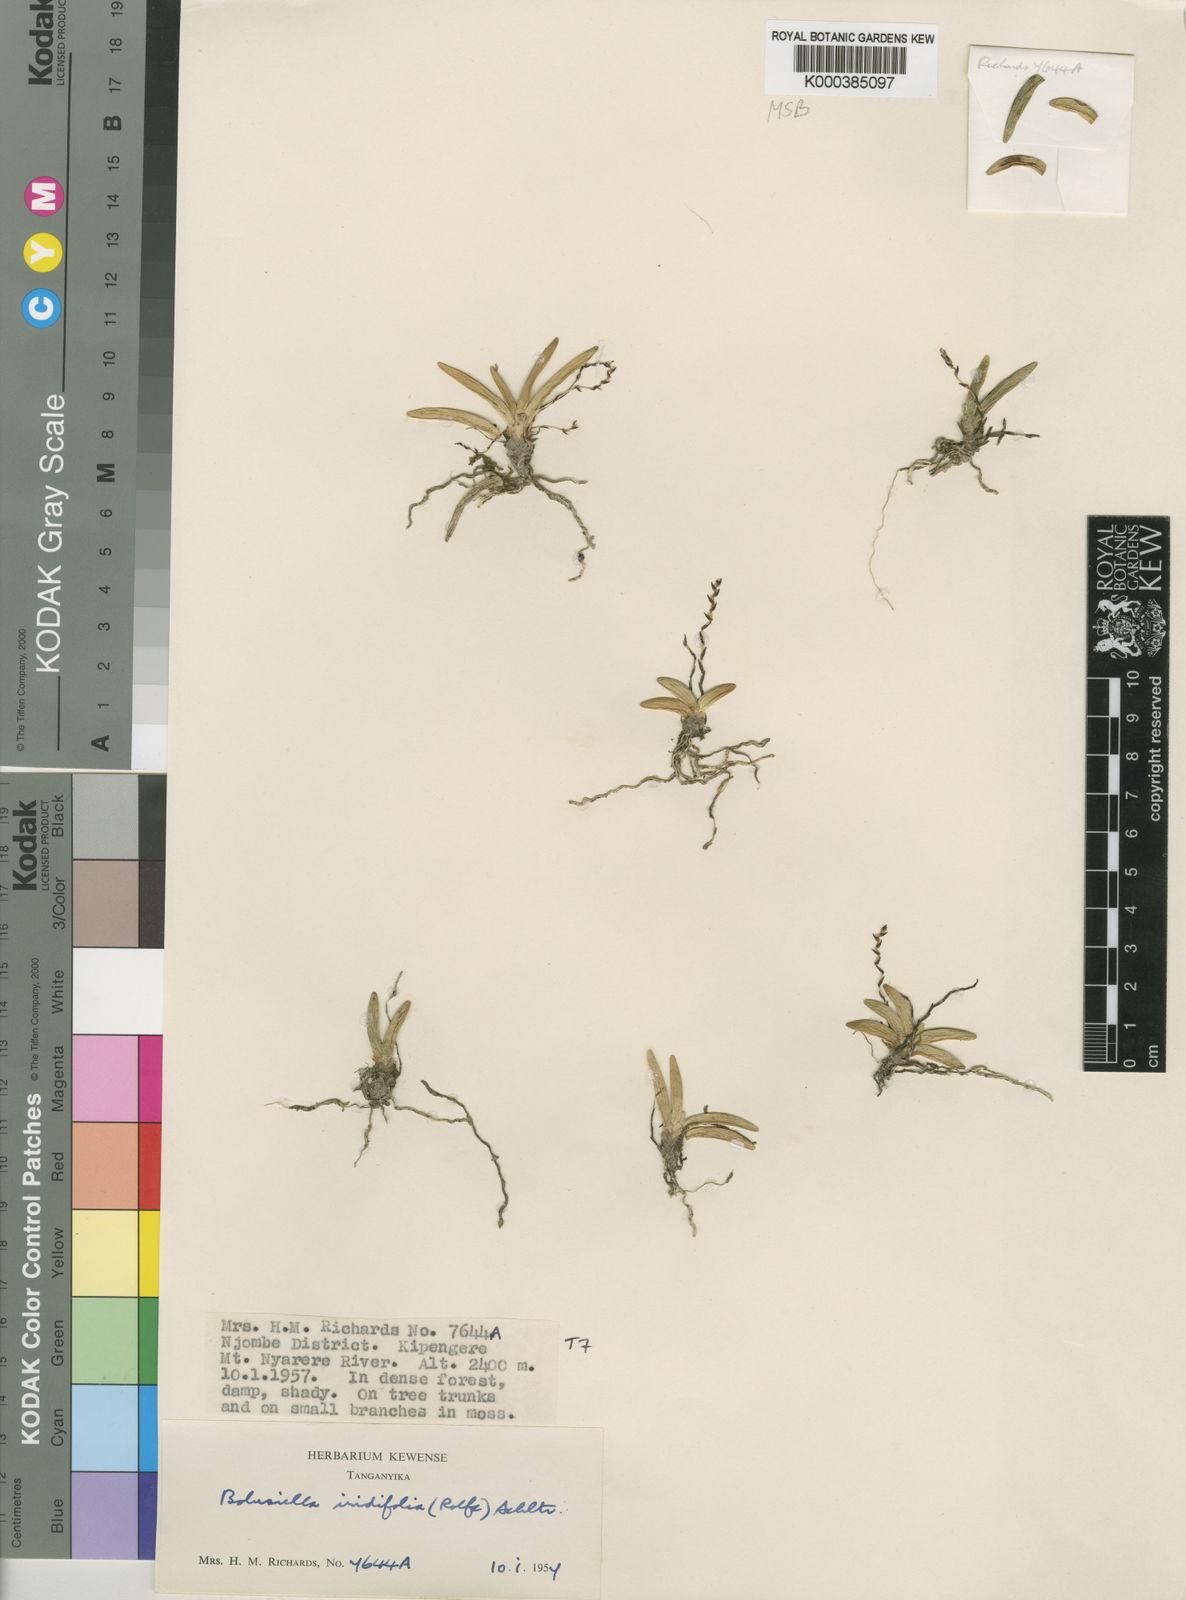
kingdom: Plantae
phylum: Tracheophyta
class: Liliopsida
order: Asparagales
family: Orchidaceae
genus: Bolusiella
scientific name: Bolusiella iridifolia
